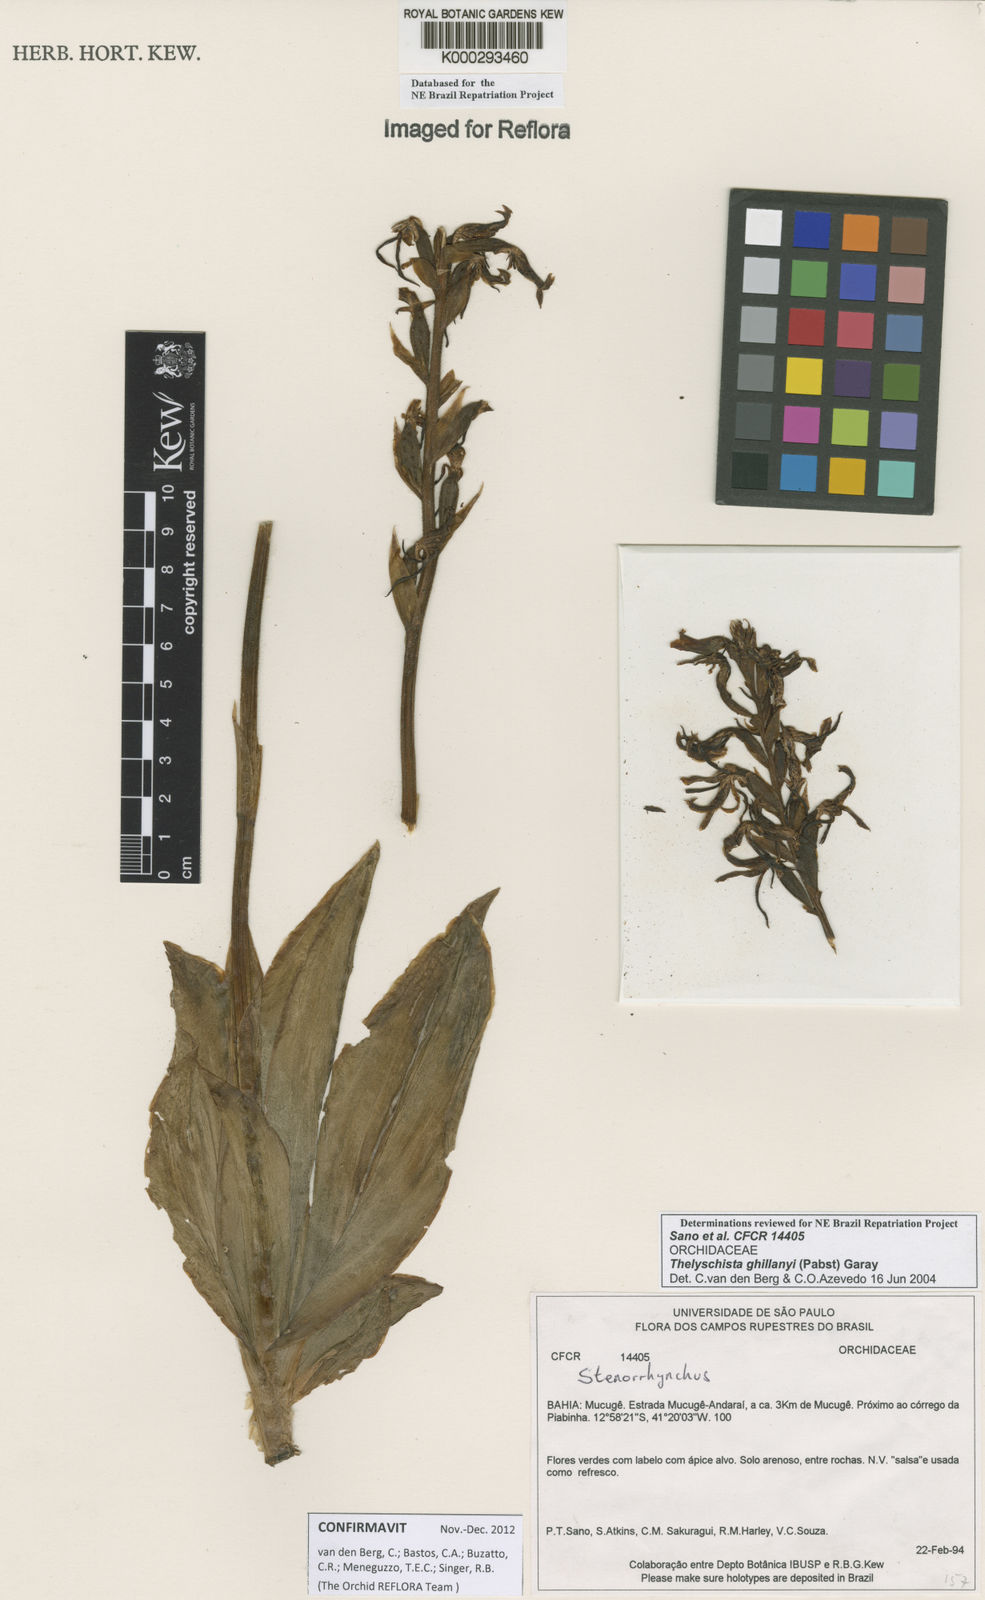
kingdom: Plantae
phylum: Tracheophyta
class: Liliopsida
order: Asparagales
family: Orchidaceae
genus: Thelyschista
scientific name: Thelyschista ghillanyi
